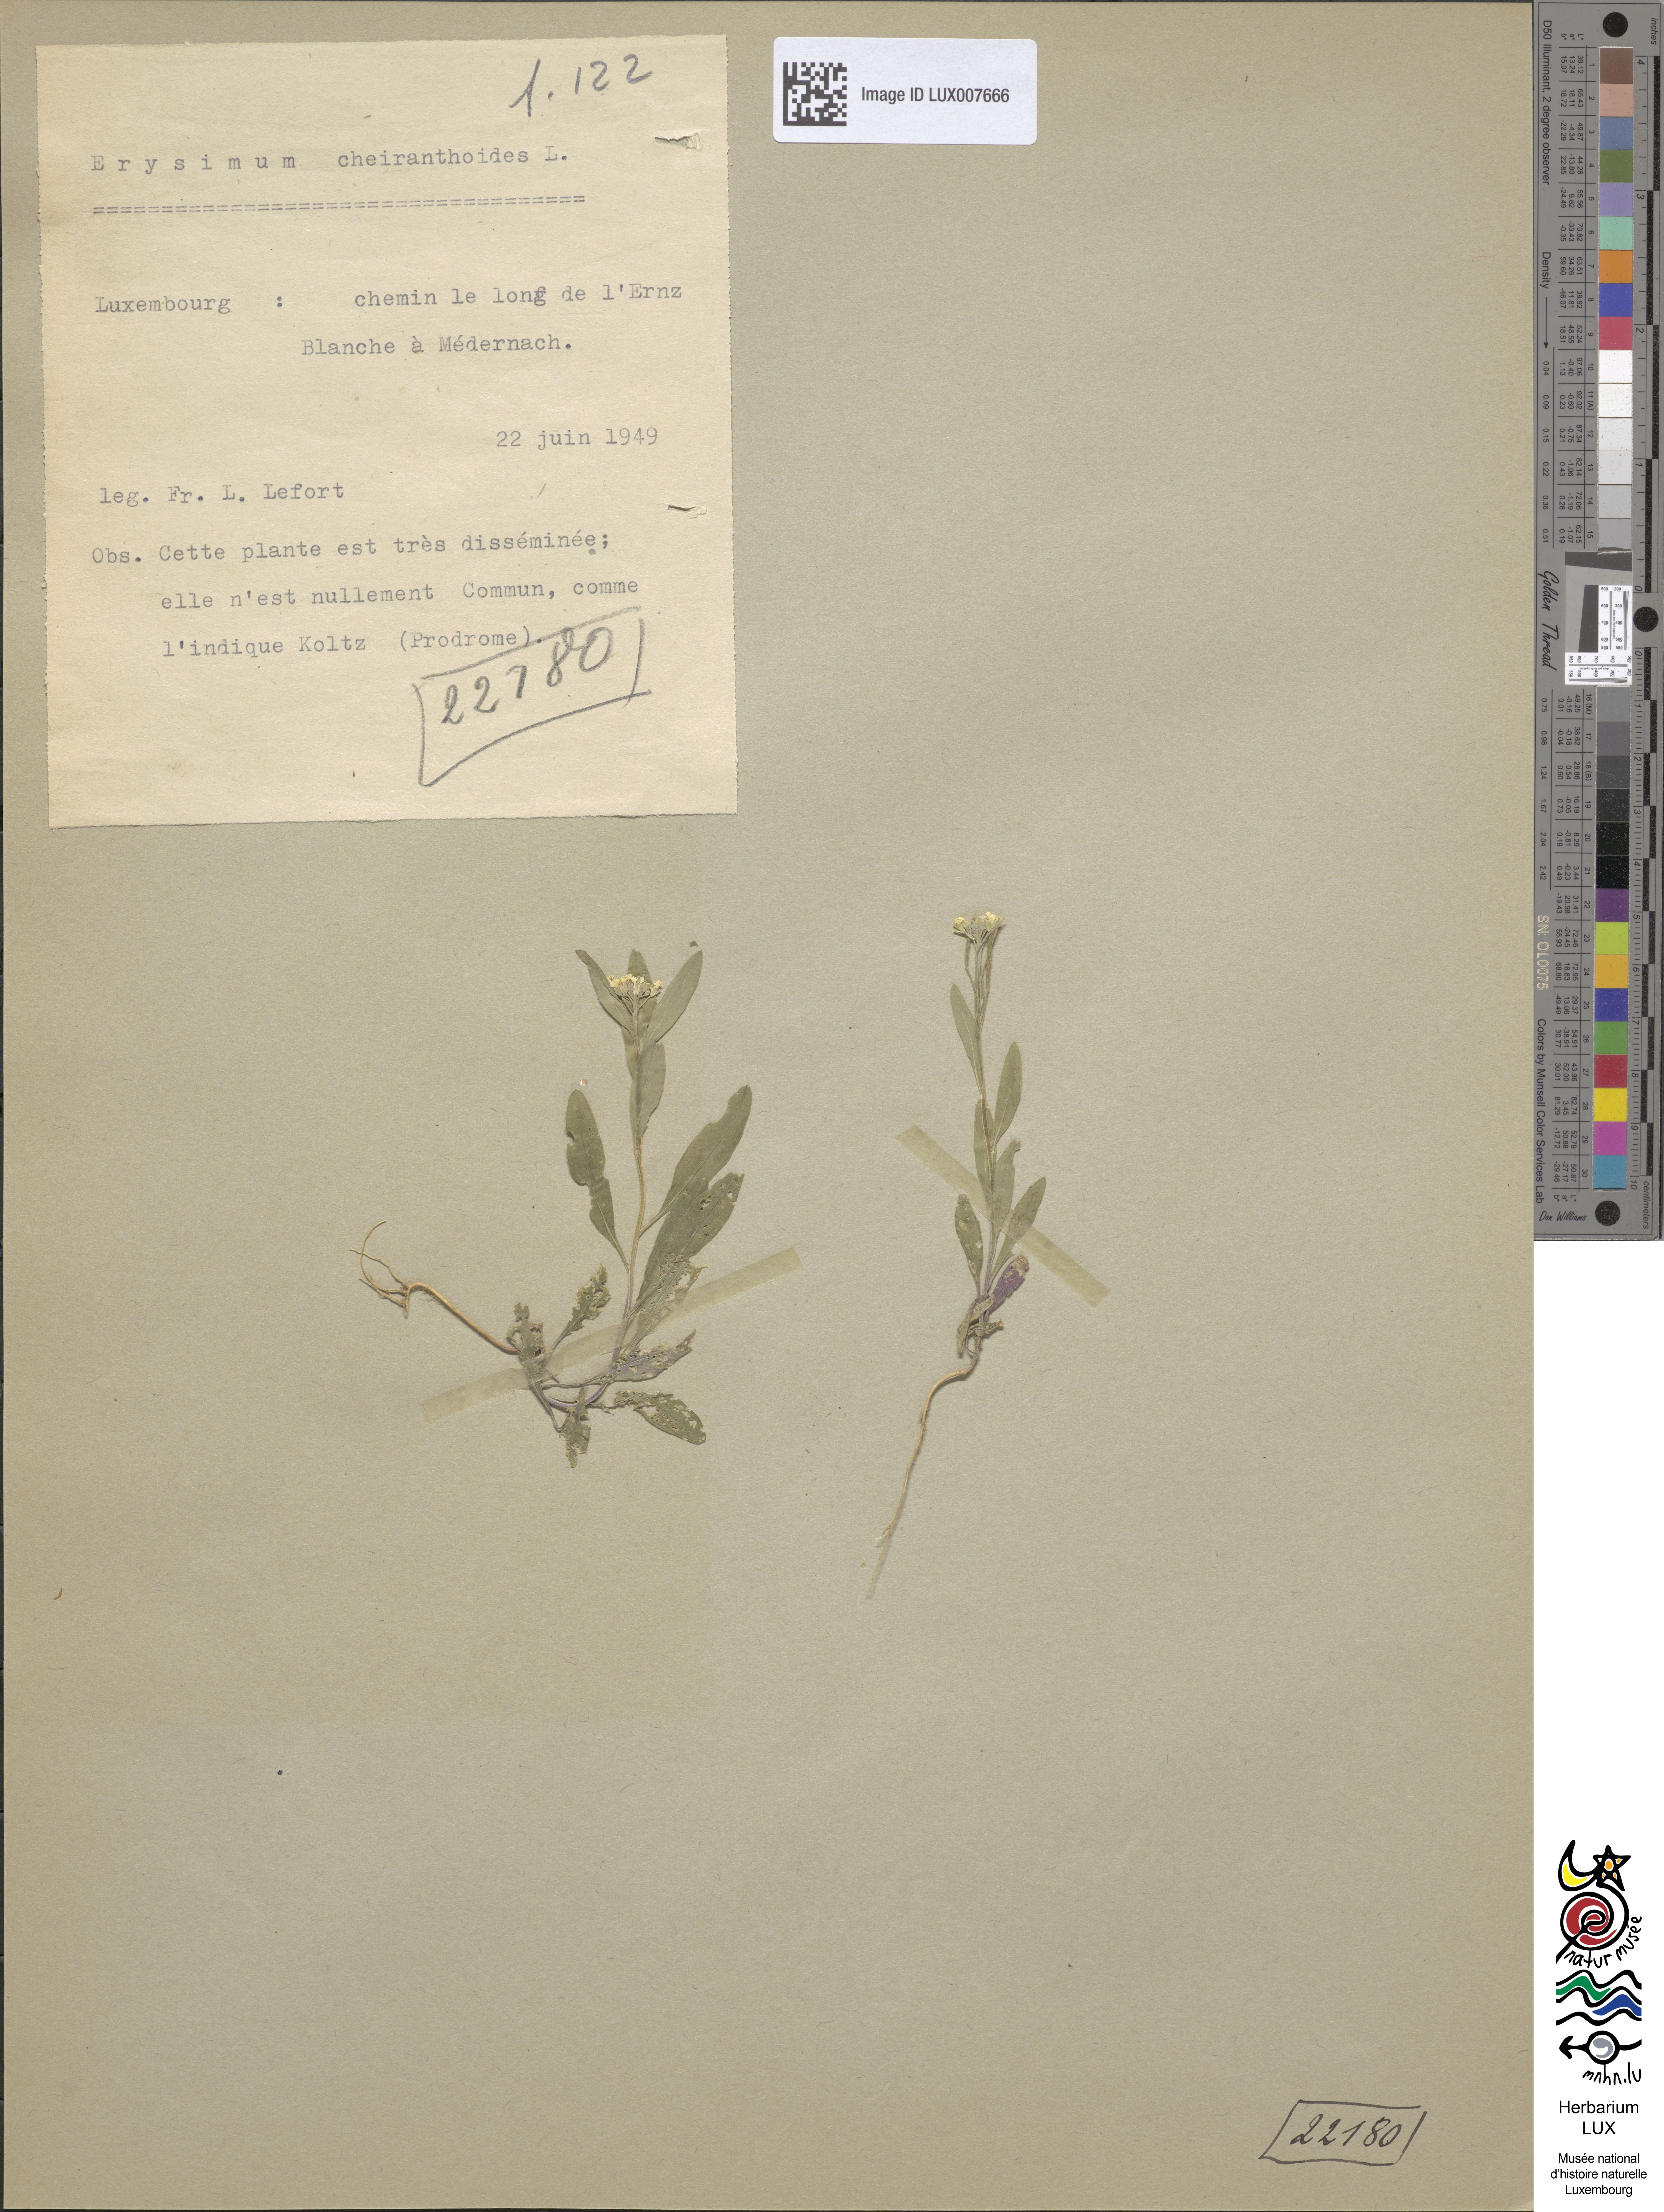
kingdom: Plantae
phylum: Tracheophyta
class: Magnoliopsida
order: Brassicales
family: Brassicaceae
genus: Erysimum
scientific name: Erysimum cheiranthoides
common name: Treacle mustard
